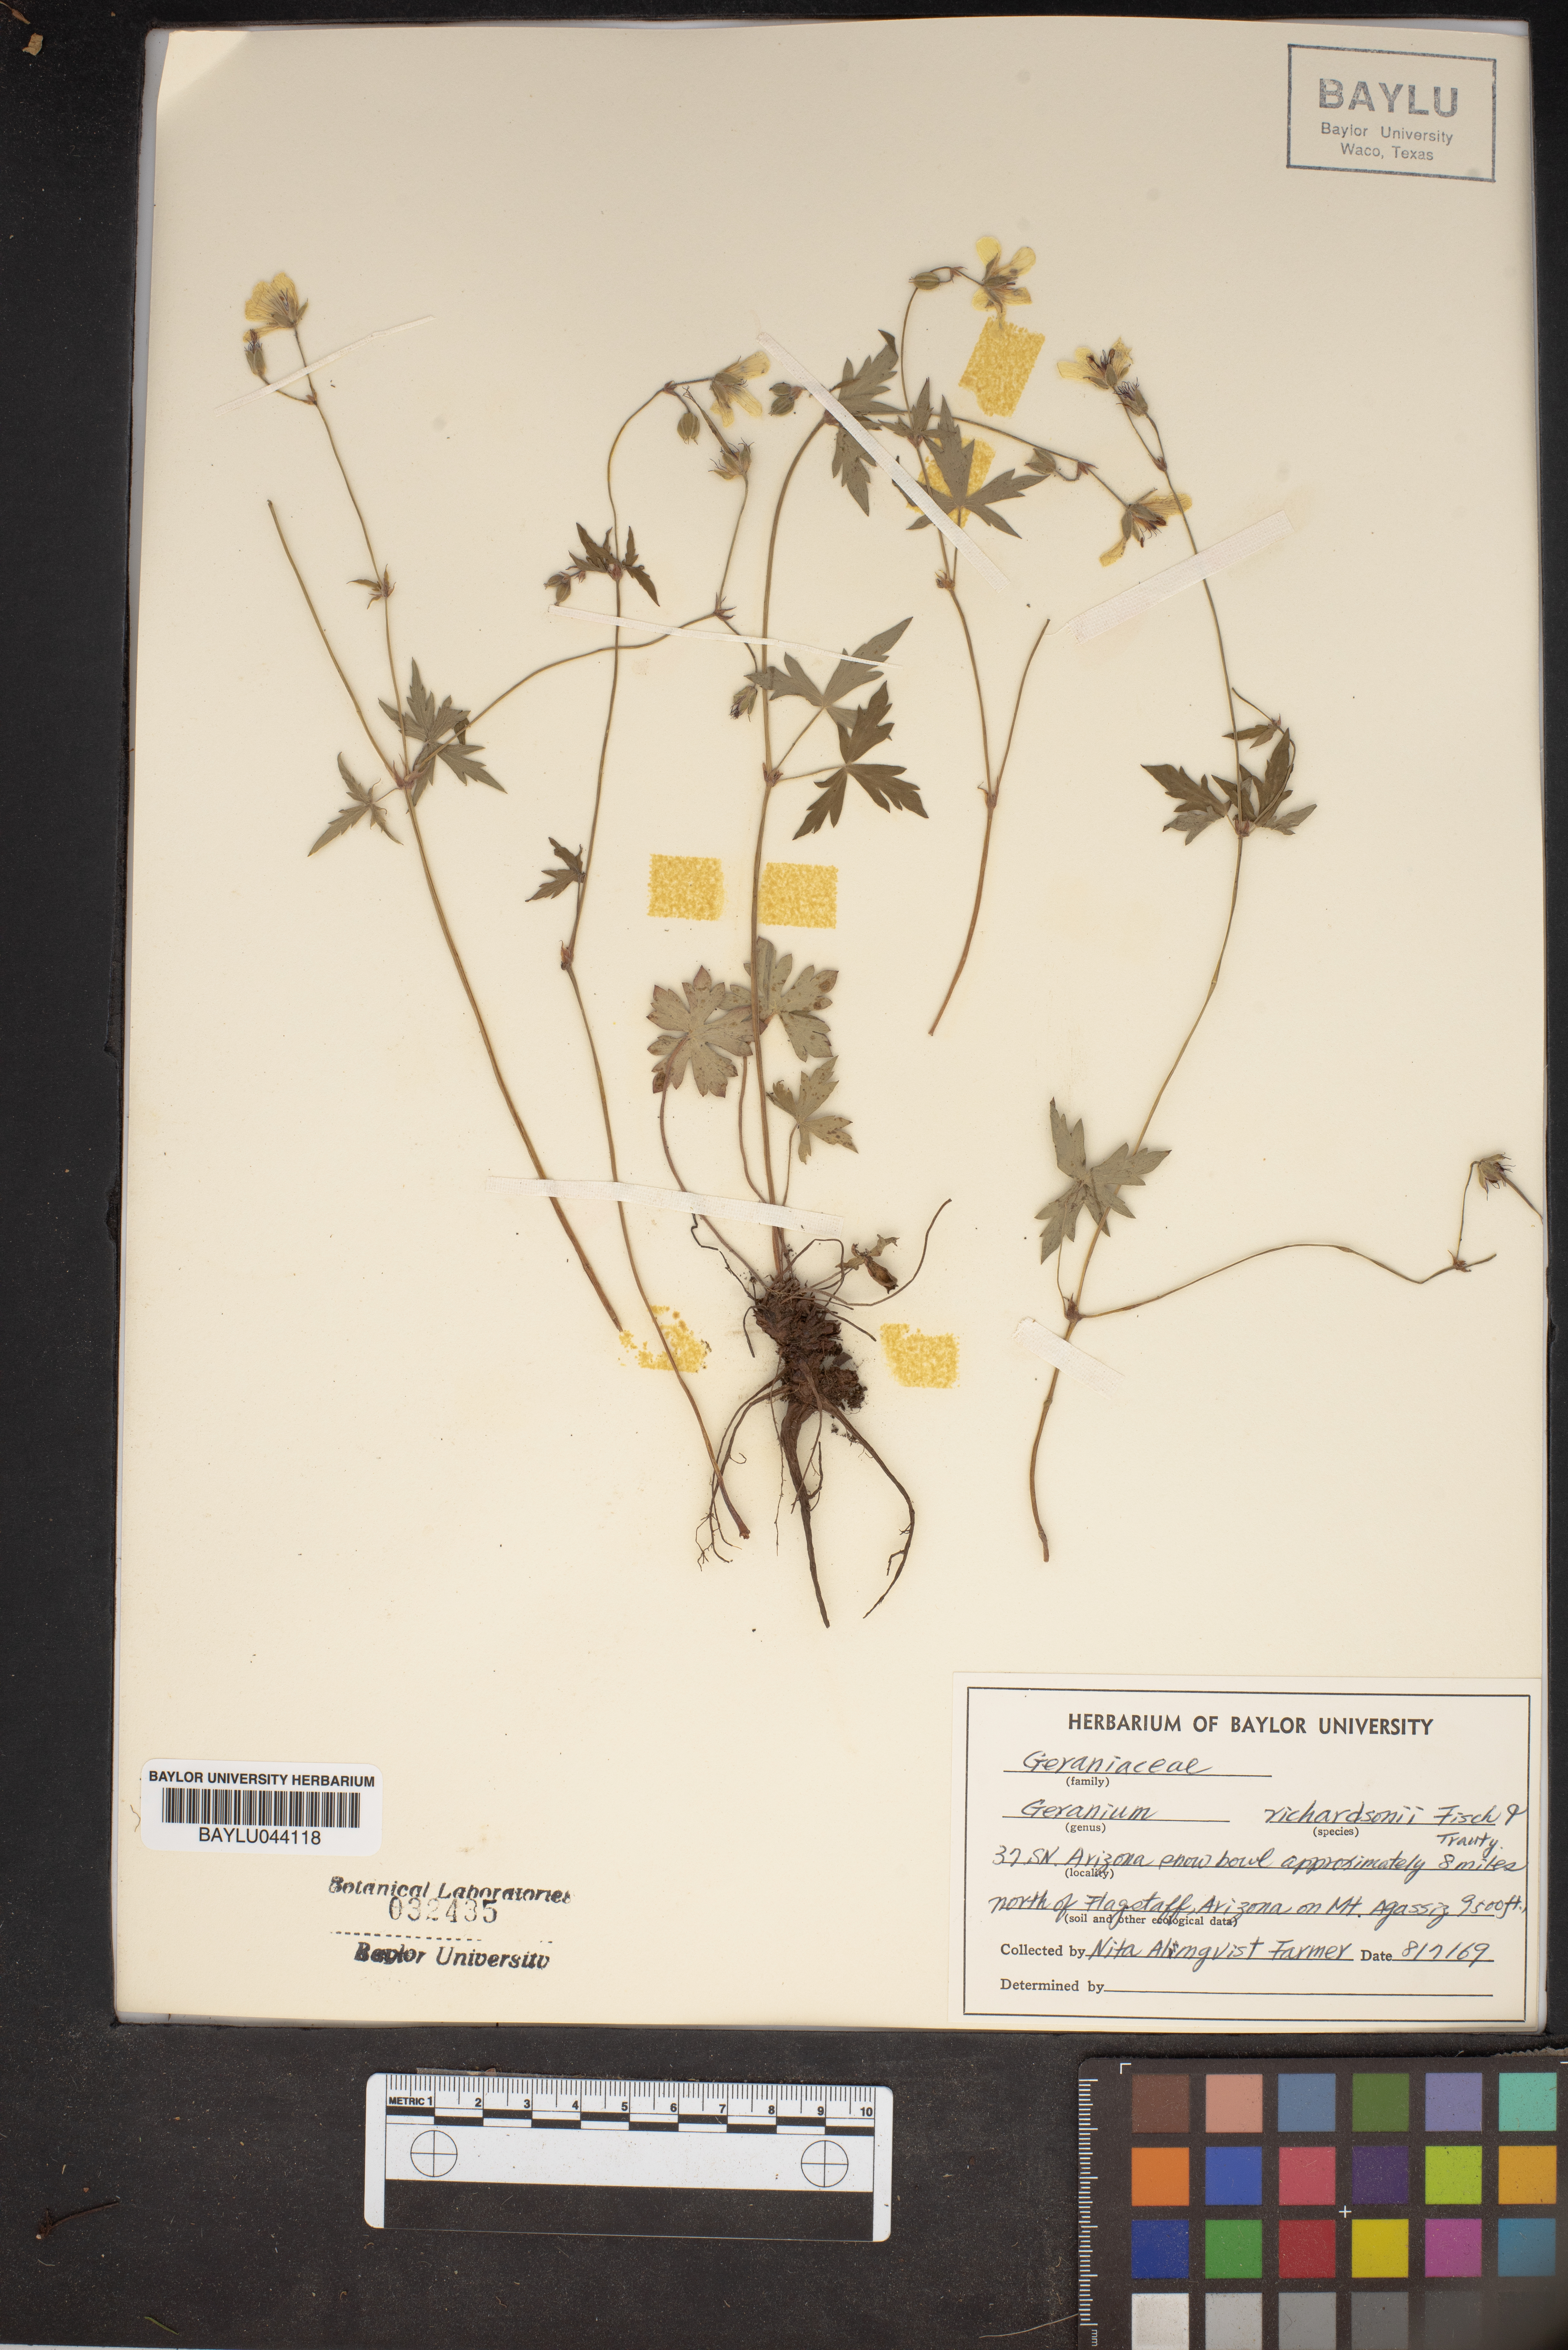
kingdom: Plantae
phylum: Tracheophyta
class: Magnoliopsida
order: Geraniales
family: Geraniaceae
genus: Geranium
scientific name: Geranium richardsonii
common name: Richardson's crane's-bill
